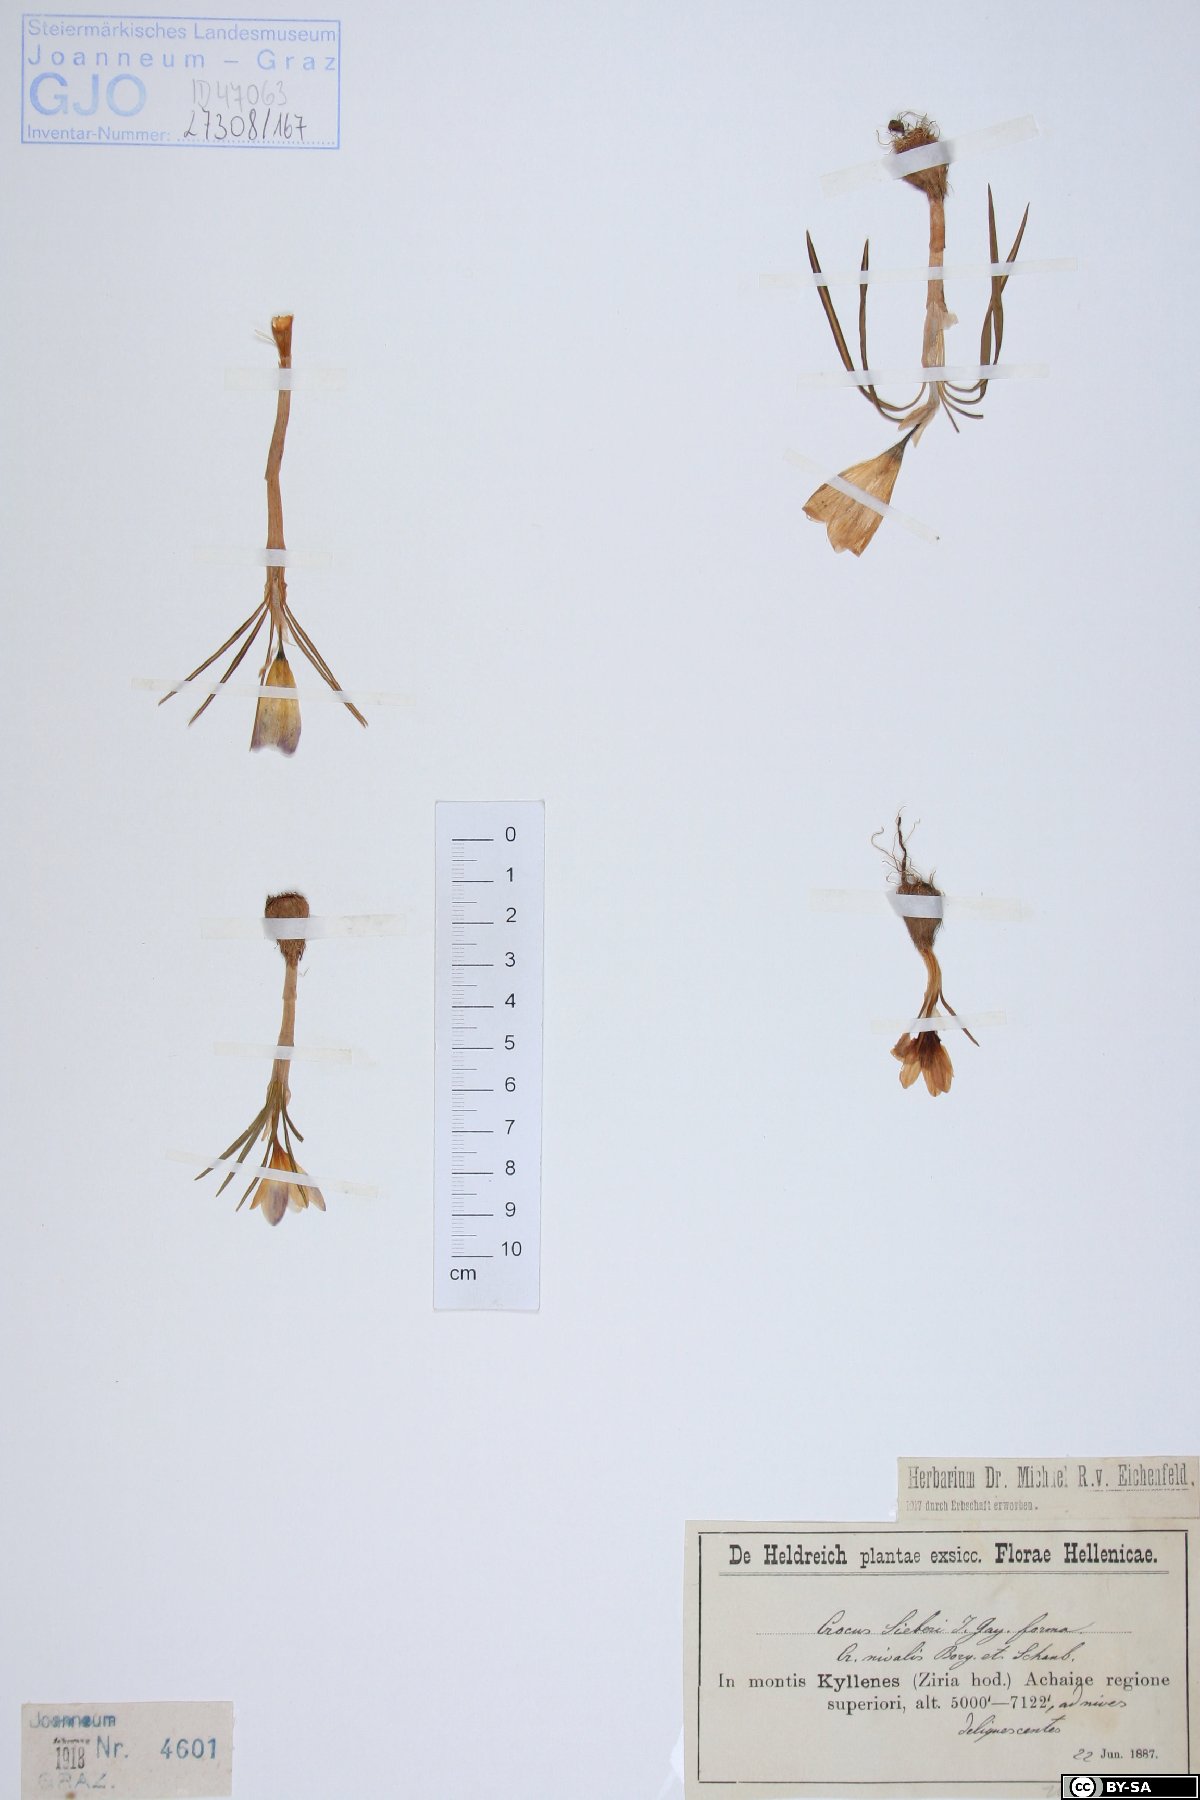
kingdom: Plantae
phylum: Tracheophyta
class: Liliopsida
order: Asparagales
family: Iridaceae
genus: Crocus
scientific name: Crocus sieberi
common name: Sieber's crocus
